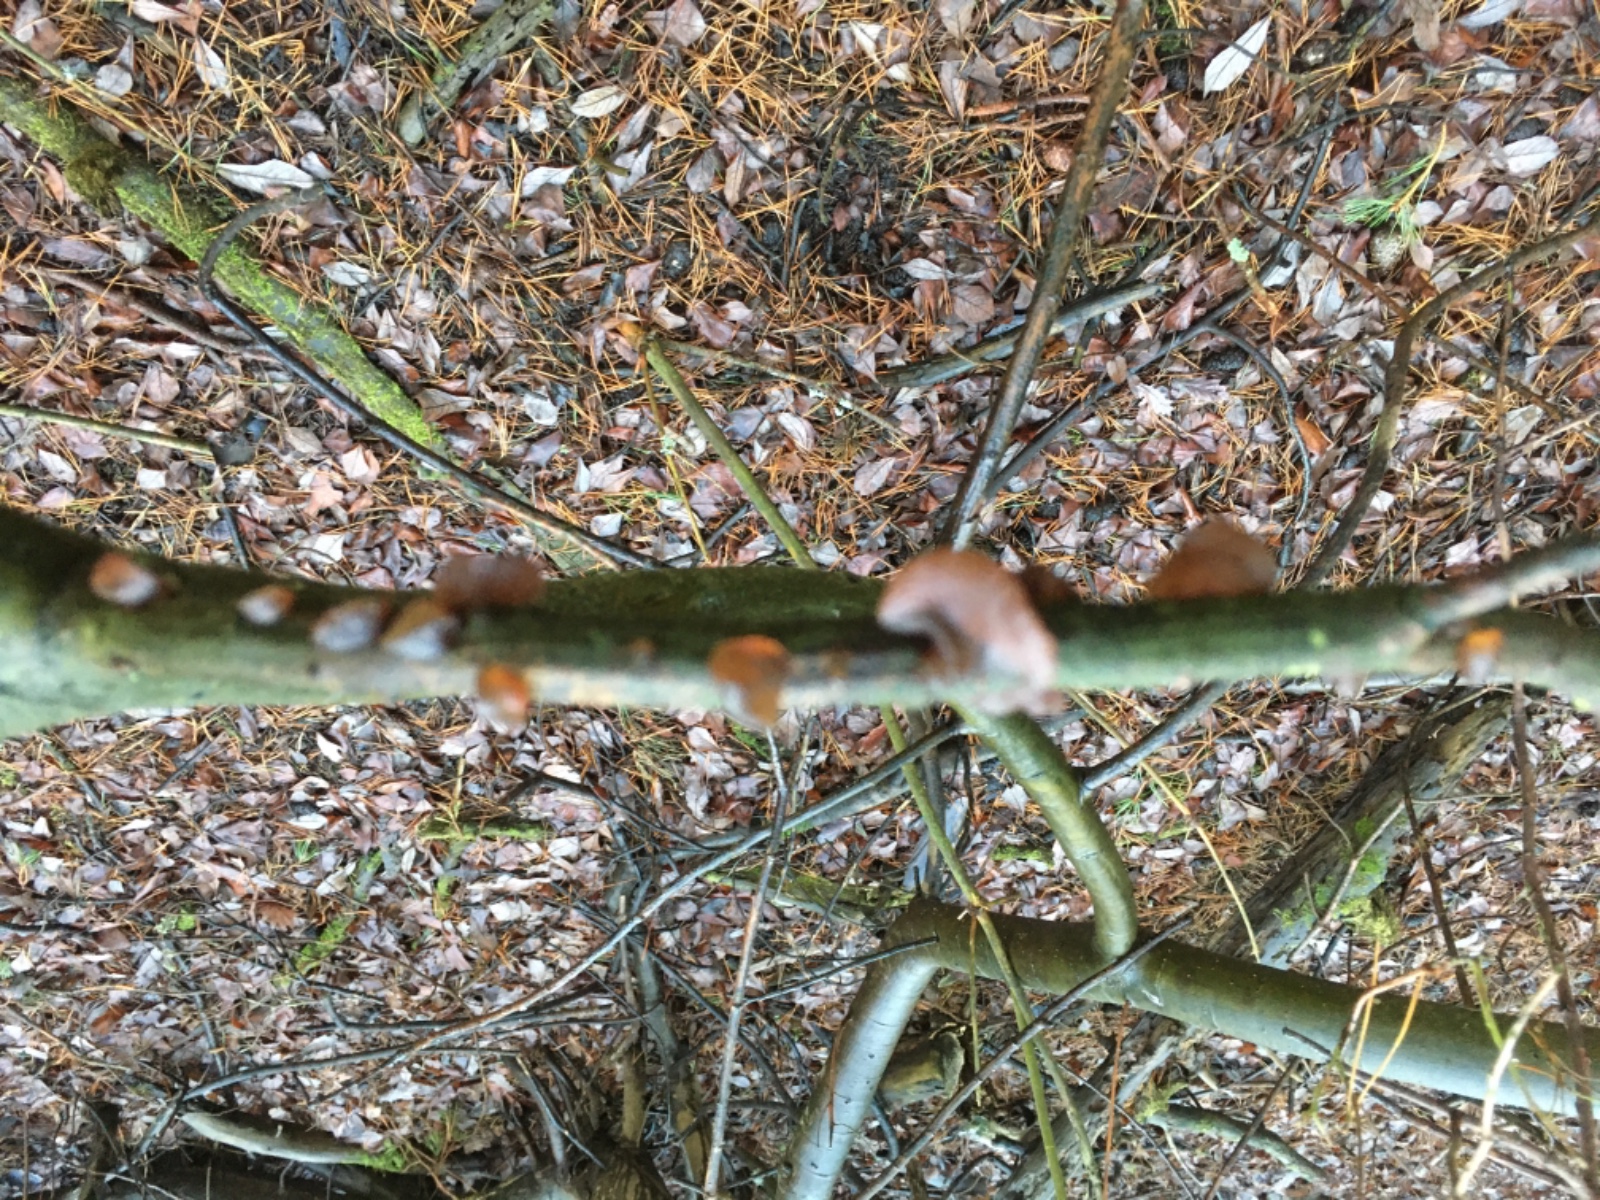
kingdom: Fungi
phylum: Basidiomycota
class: Agaricomycetes
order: Auriculariales
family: Auriculariaceae
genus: Exidia
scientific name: Exidia recisa
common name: pile-bævretop
